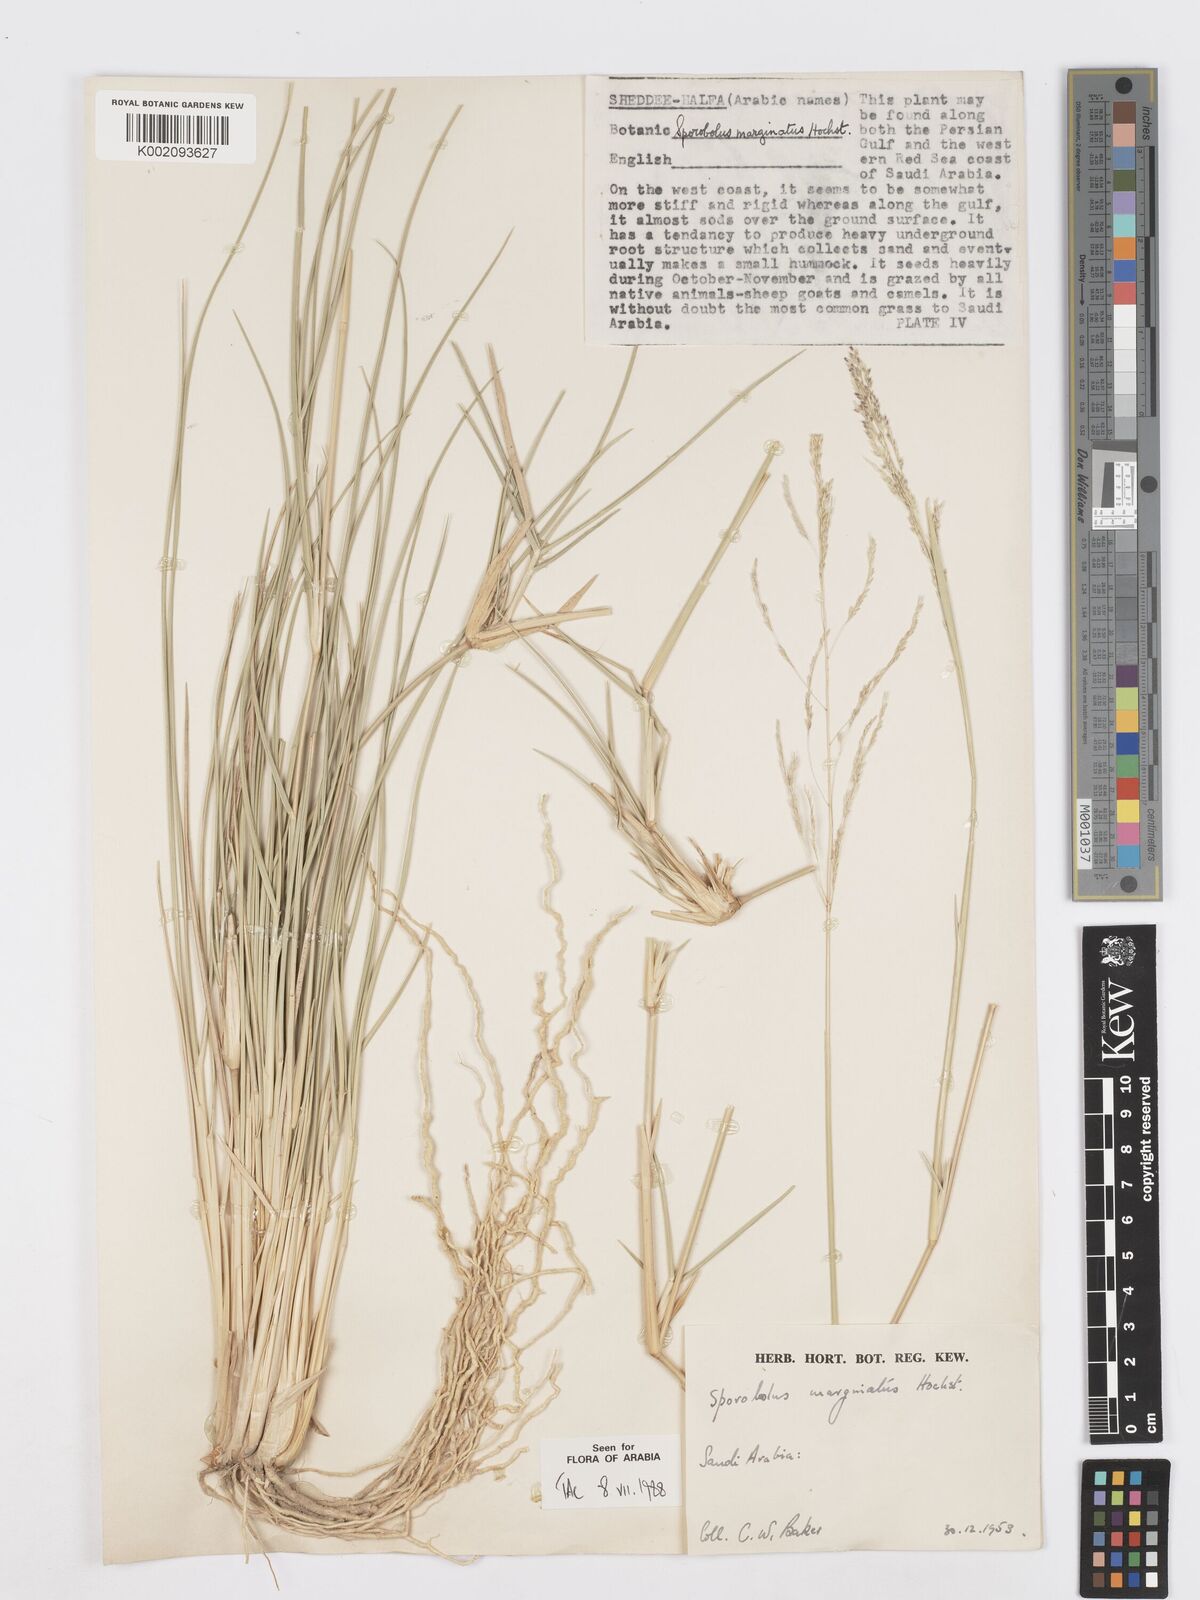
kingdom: Plantae
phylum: Tracheophyta
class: Liliopsida
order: Poales
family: Poaceae
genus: Sporobolus
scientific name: Sporobolus ioclados
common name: Pan dropseed
